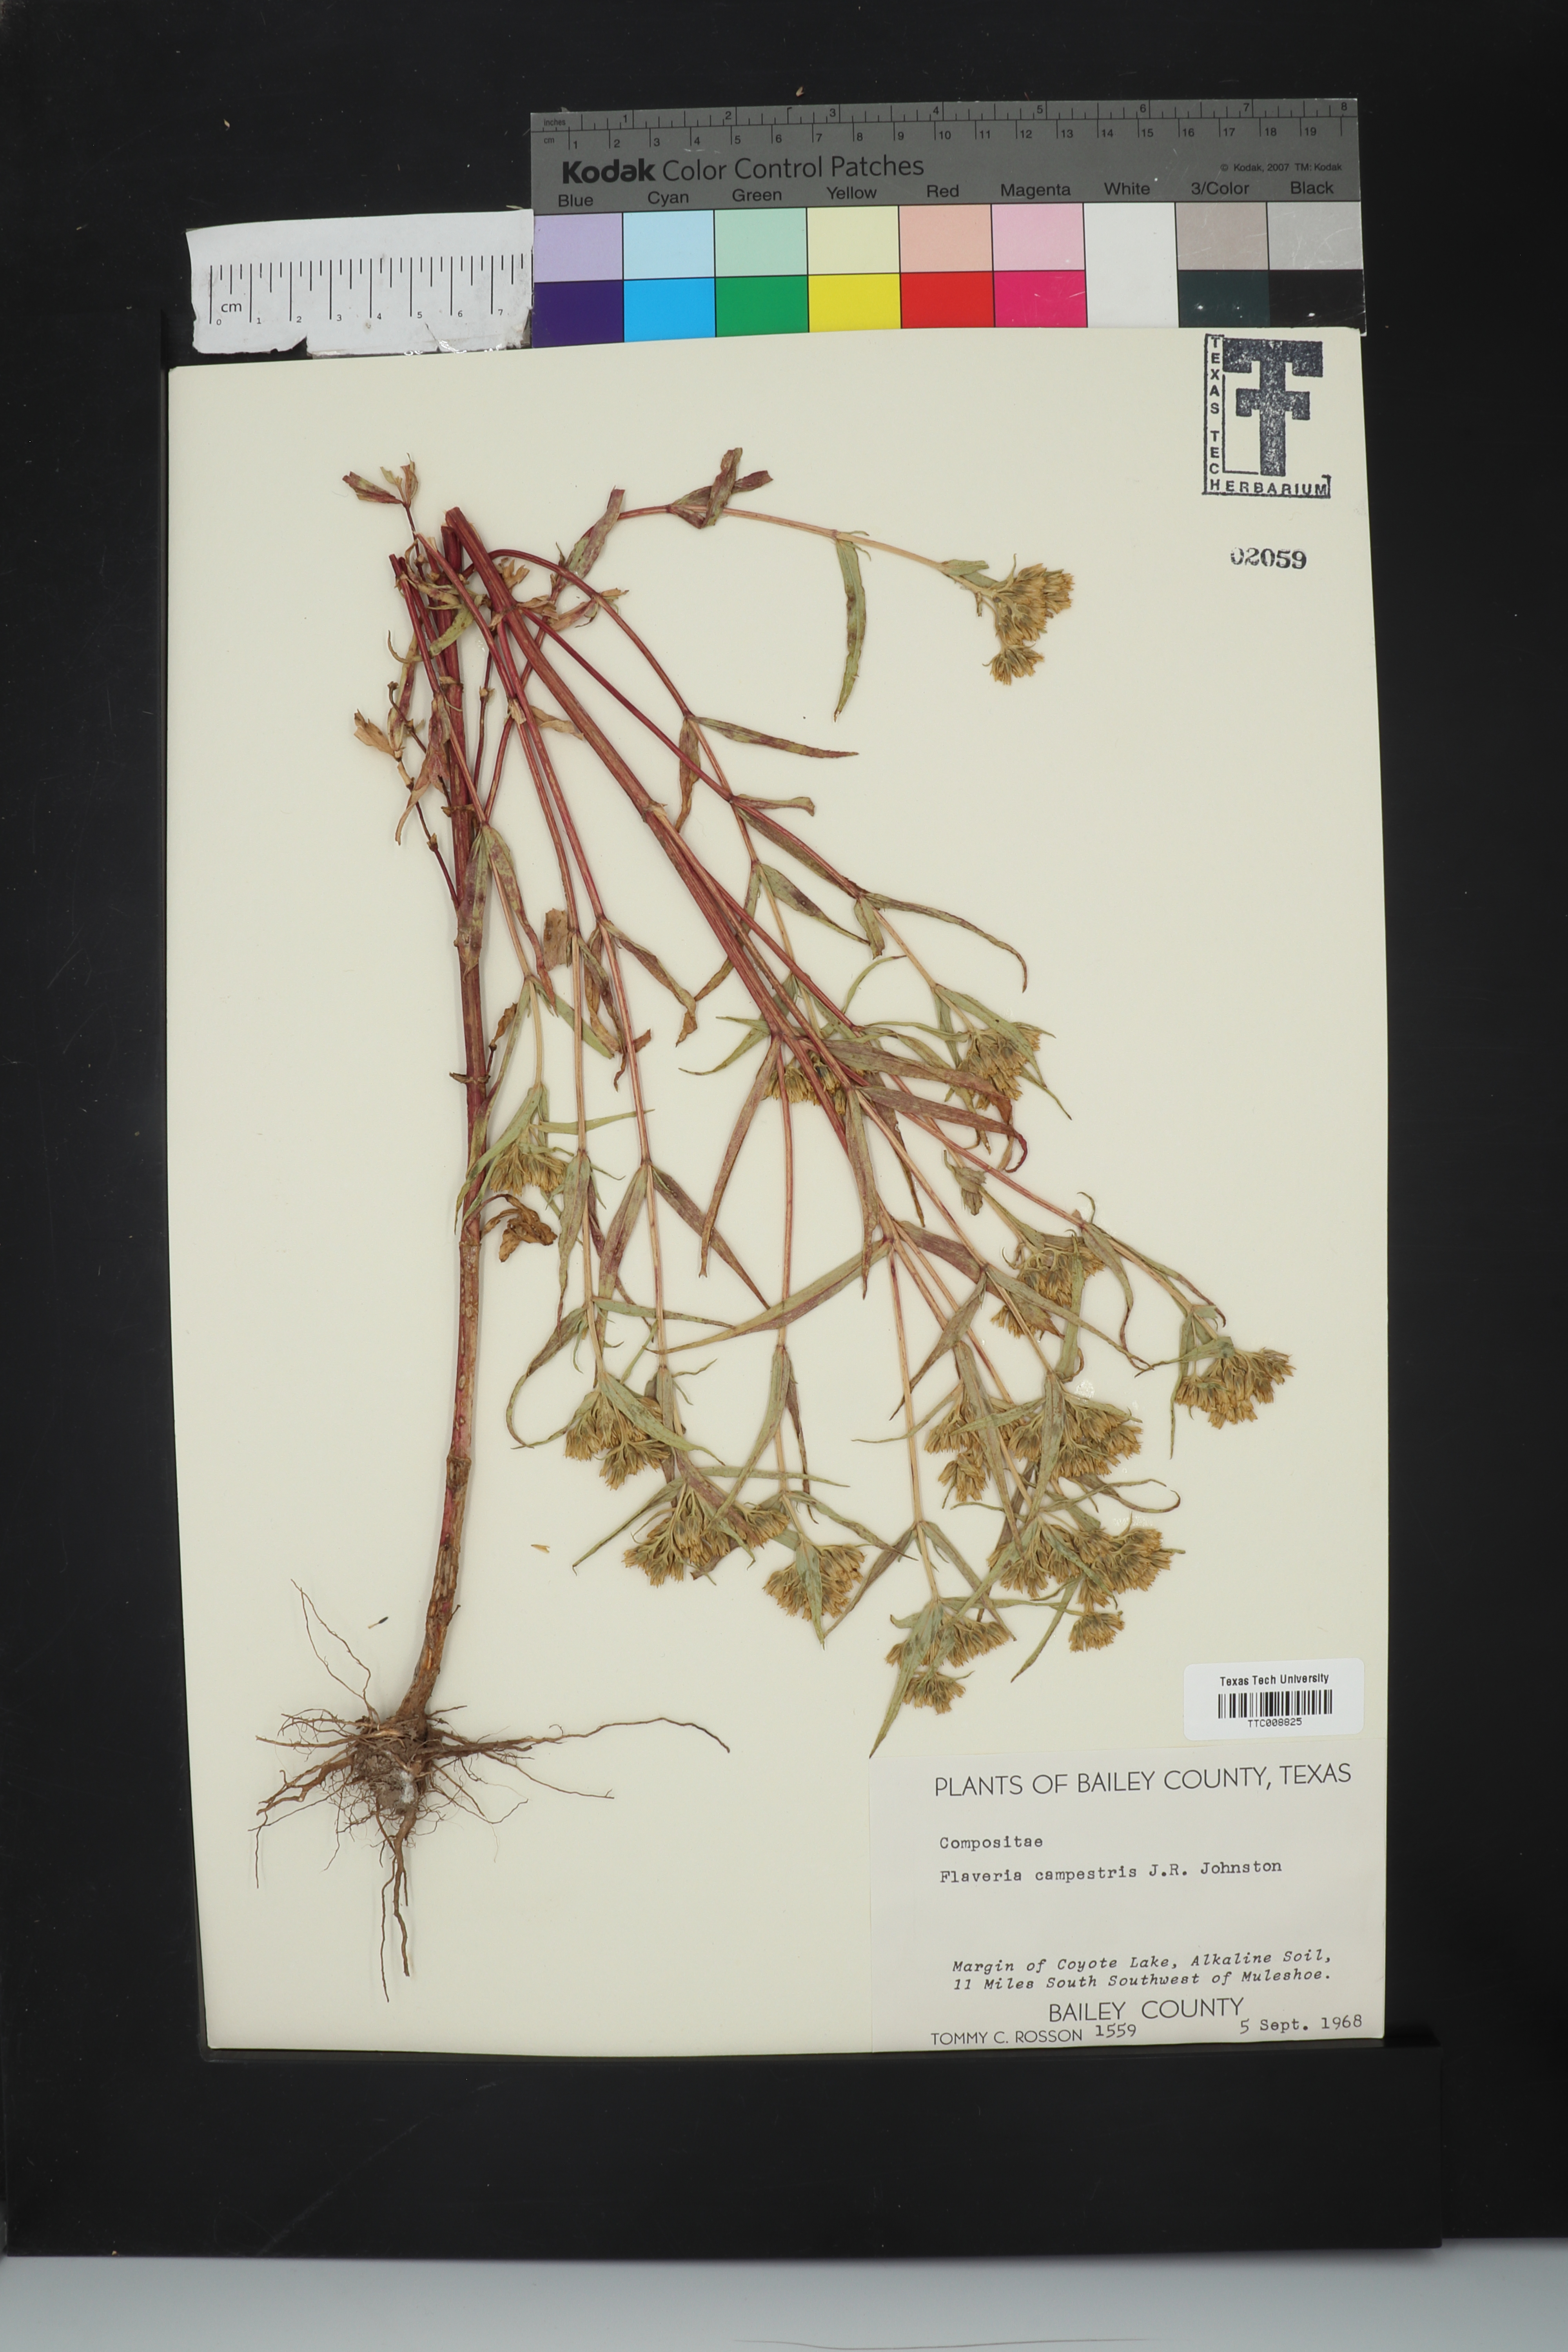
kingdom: Plantae
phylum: Tracheophyta
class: Magnoliopsida
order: Asterales
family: Asteraceae
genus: Flaveria
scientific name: Flaveria campestris
